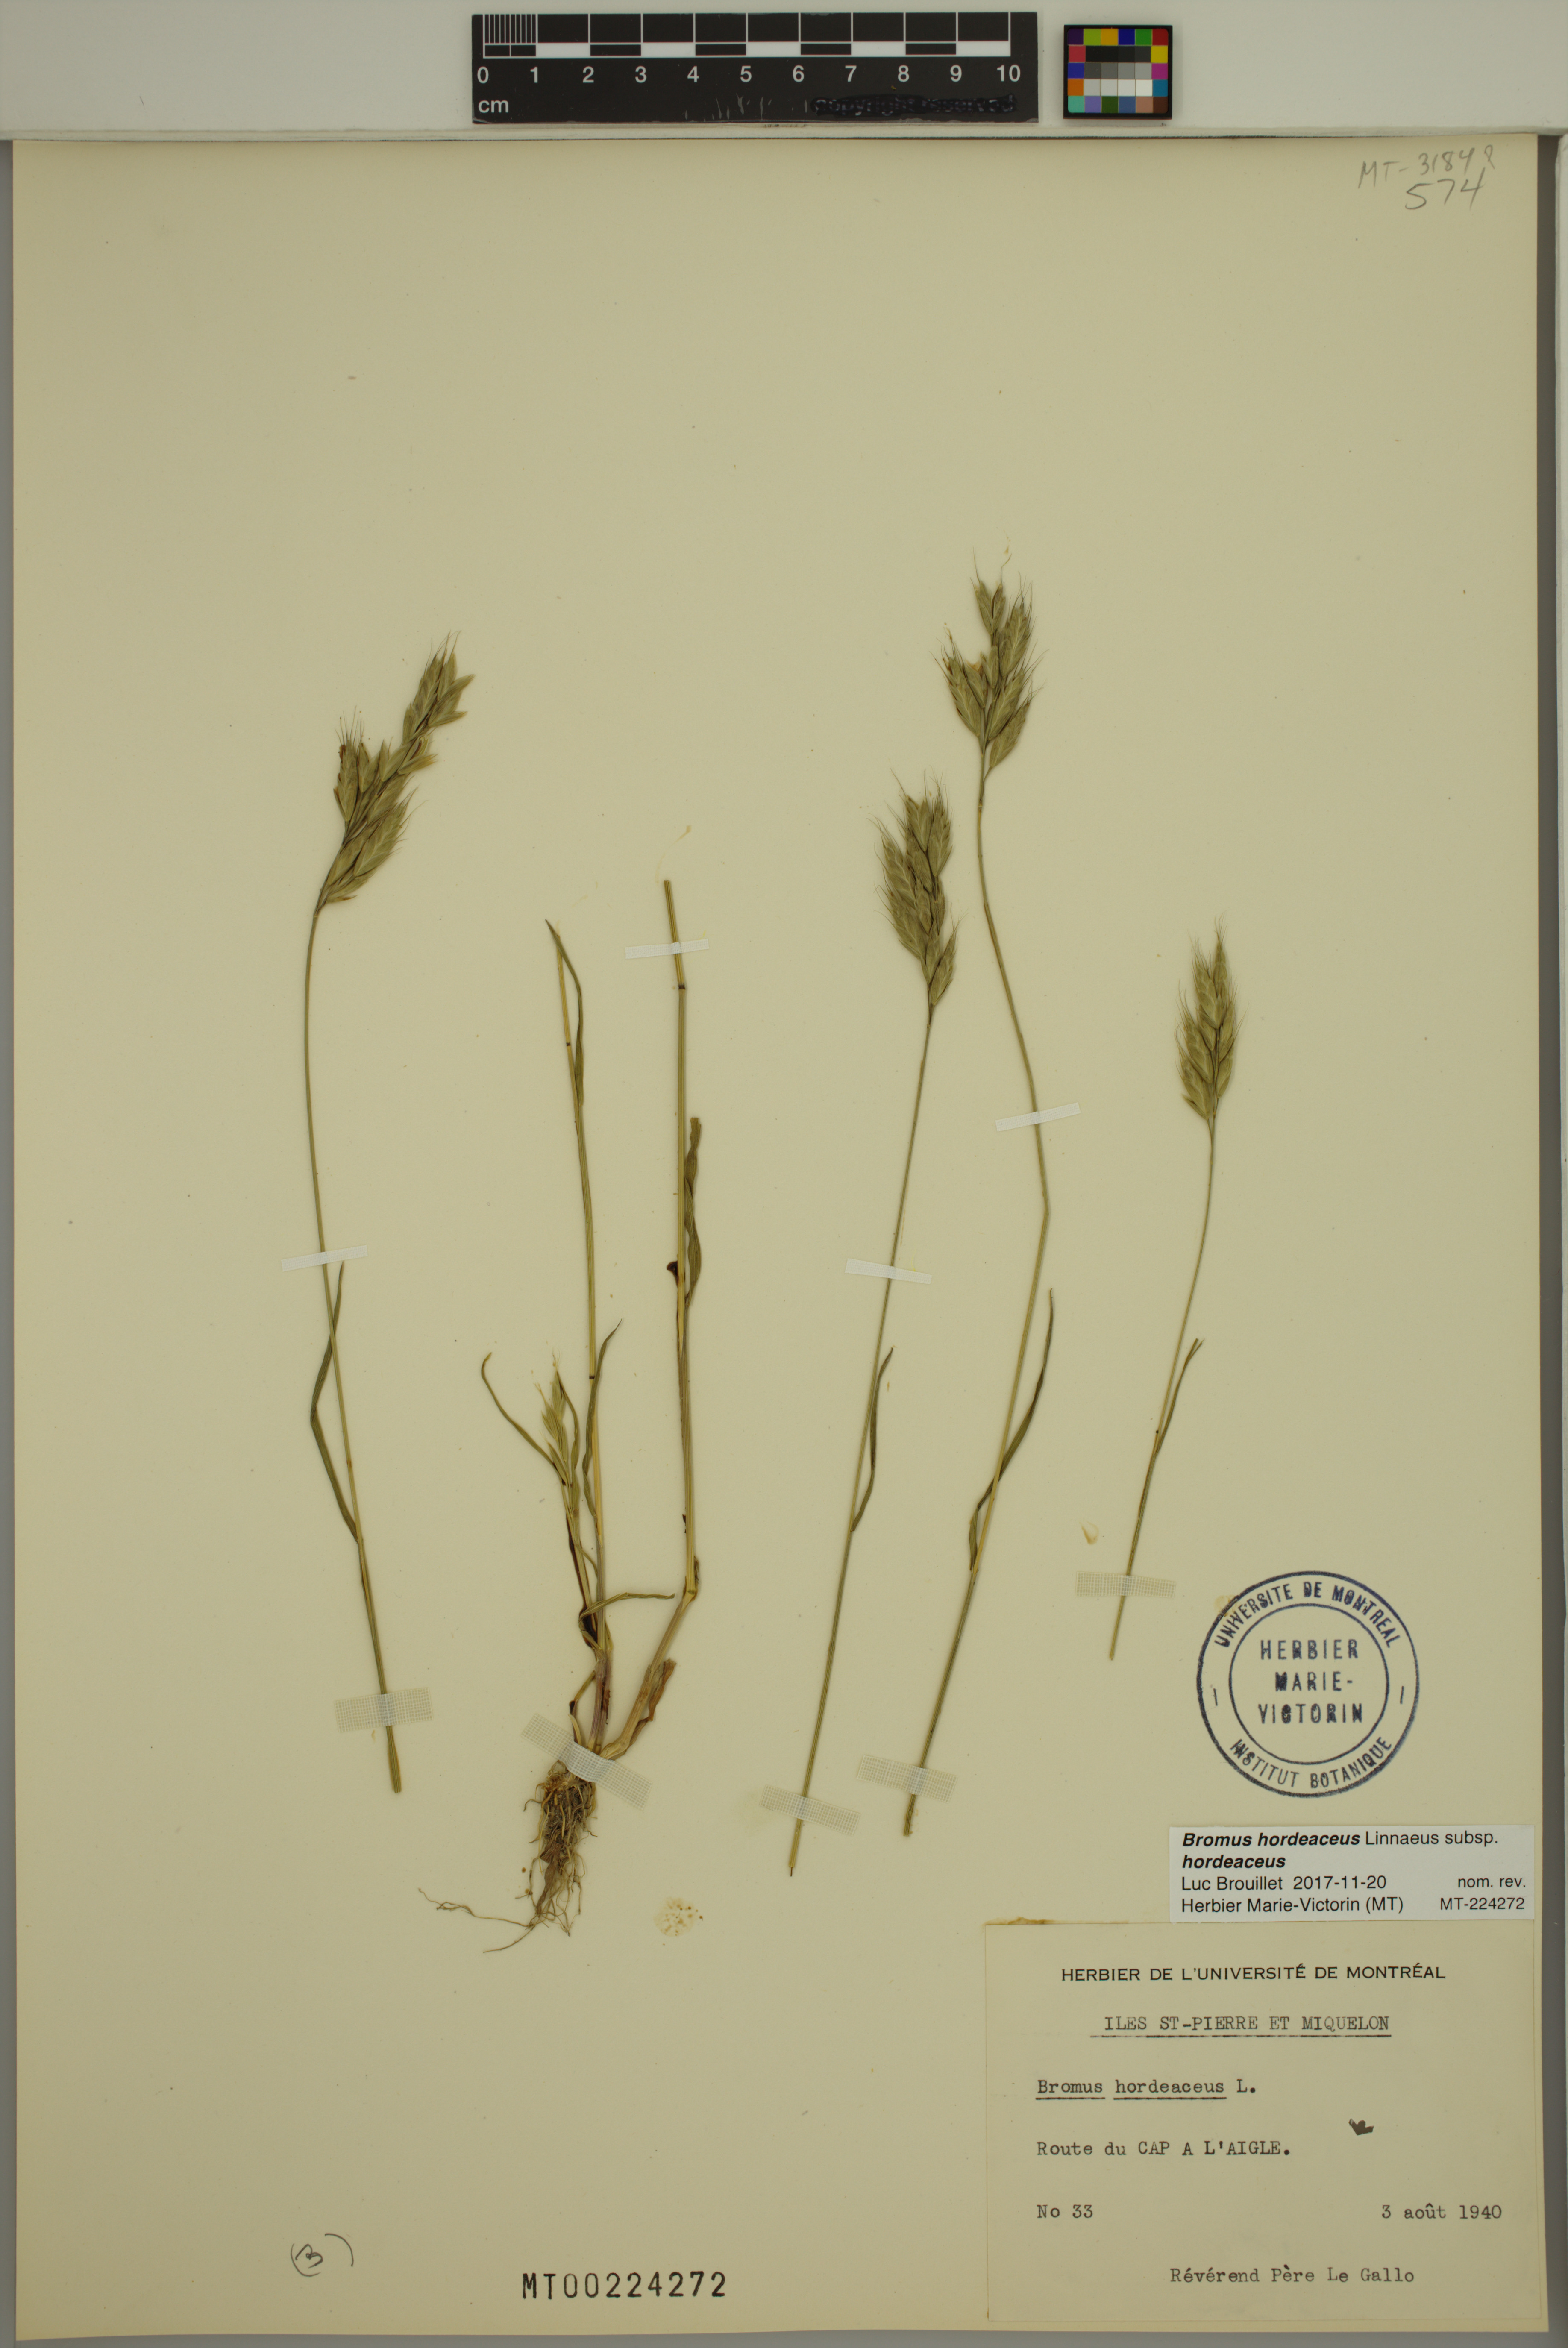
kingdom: Plantae
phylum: Tracheophyta
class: Liliopsida
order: Poales
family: Poaceae
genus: Bromus
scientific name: Bromus hordeaceus
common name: Soft brome
